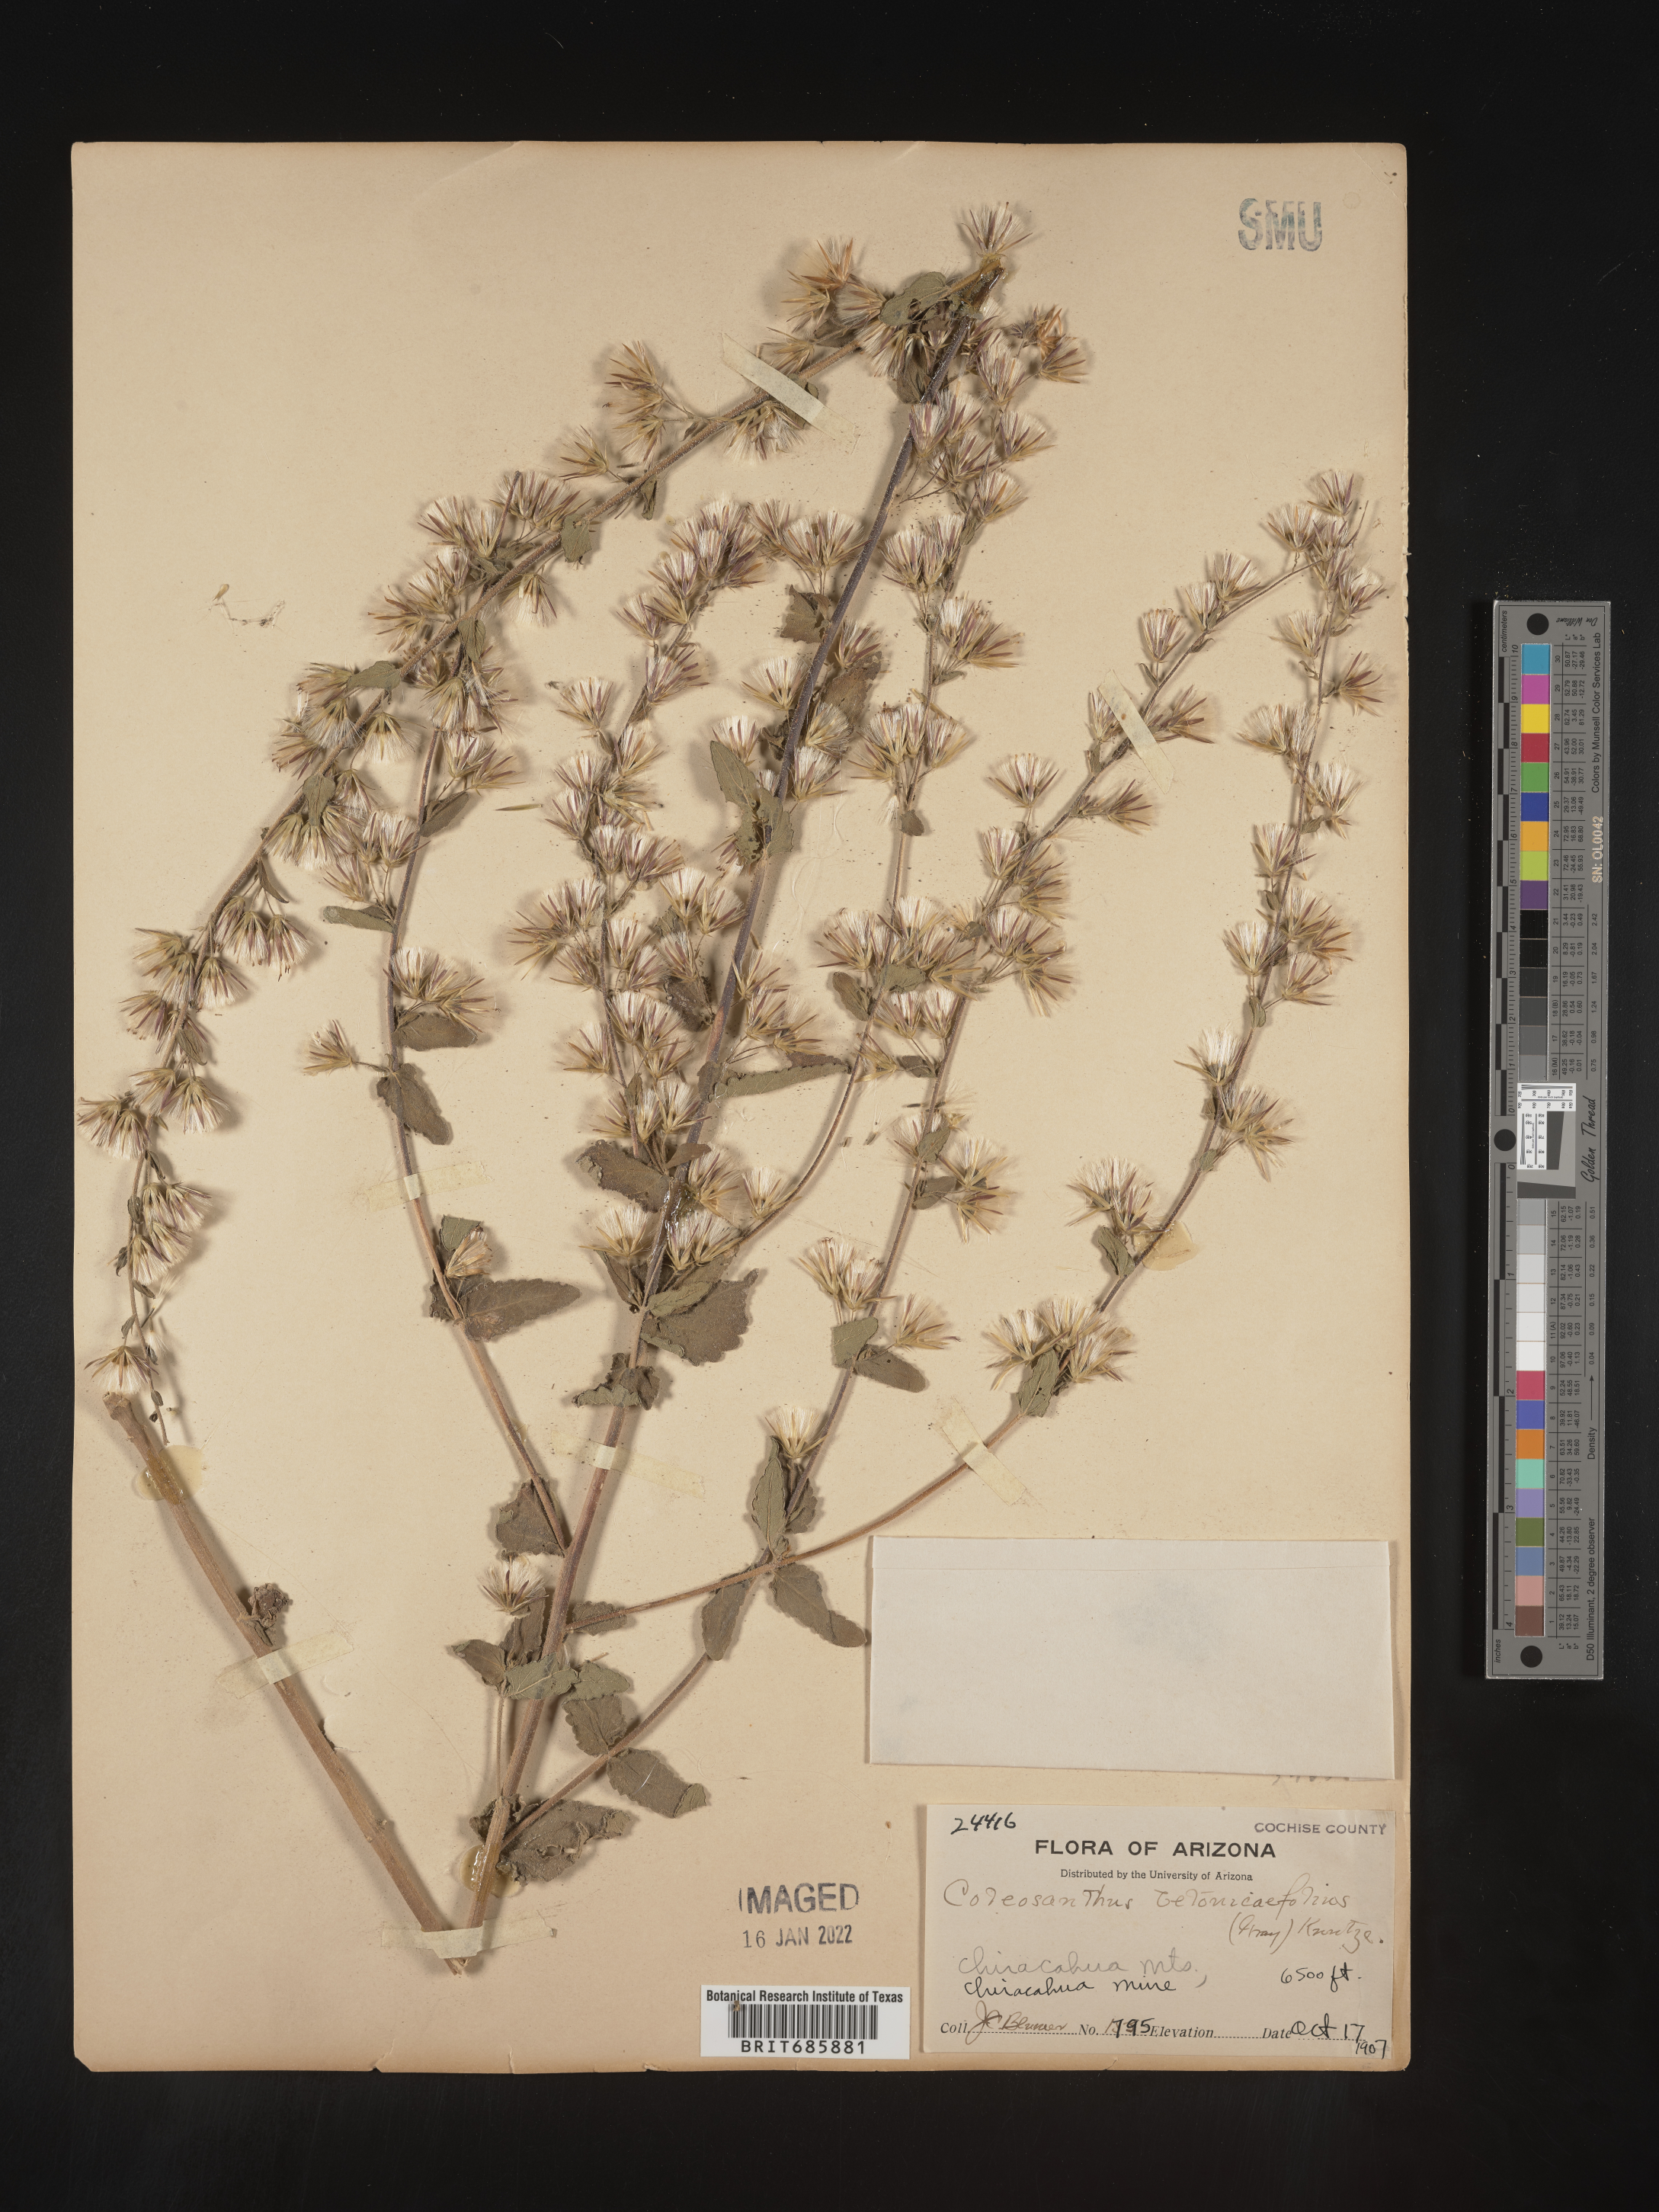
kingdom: Plantae
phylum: Tracheophyta
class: Magnoliopsida
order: Asterales
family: Asteraceae
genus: Brickellia
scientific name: Brickellia betonicifolia
